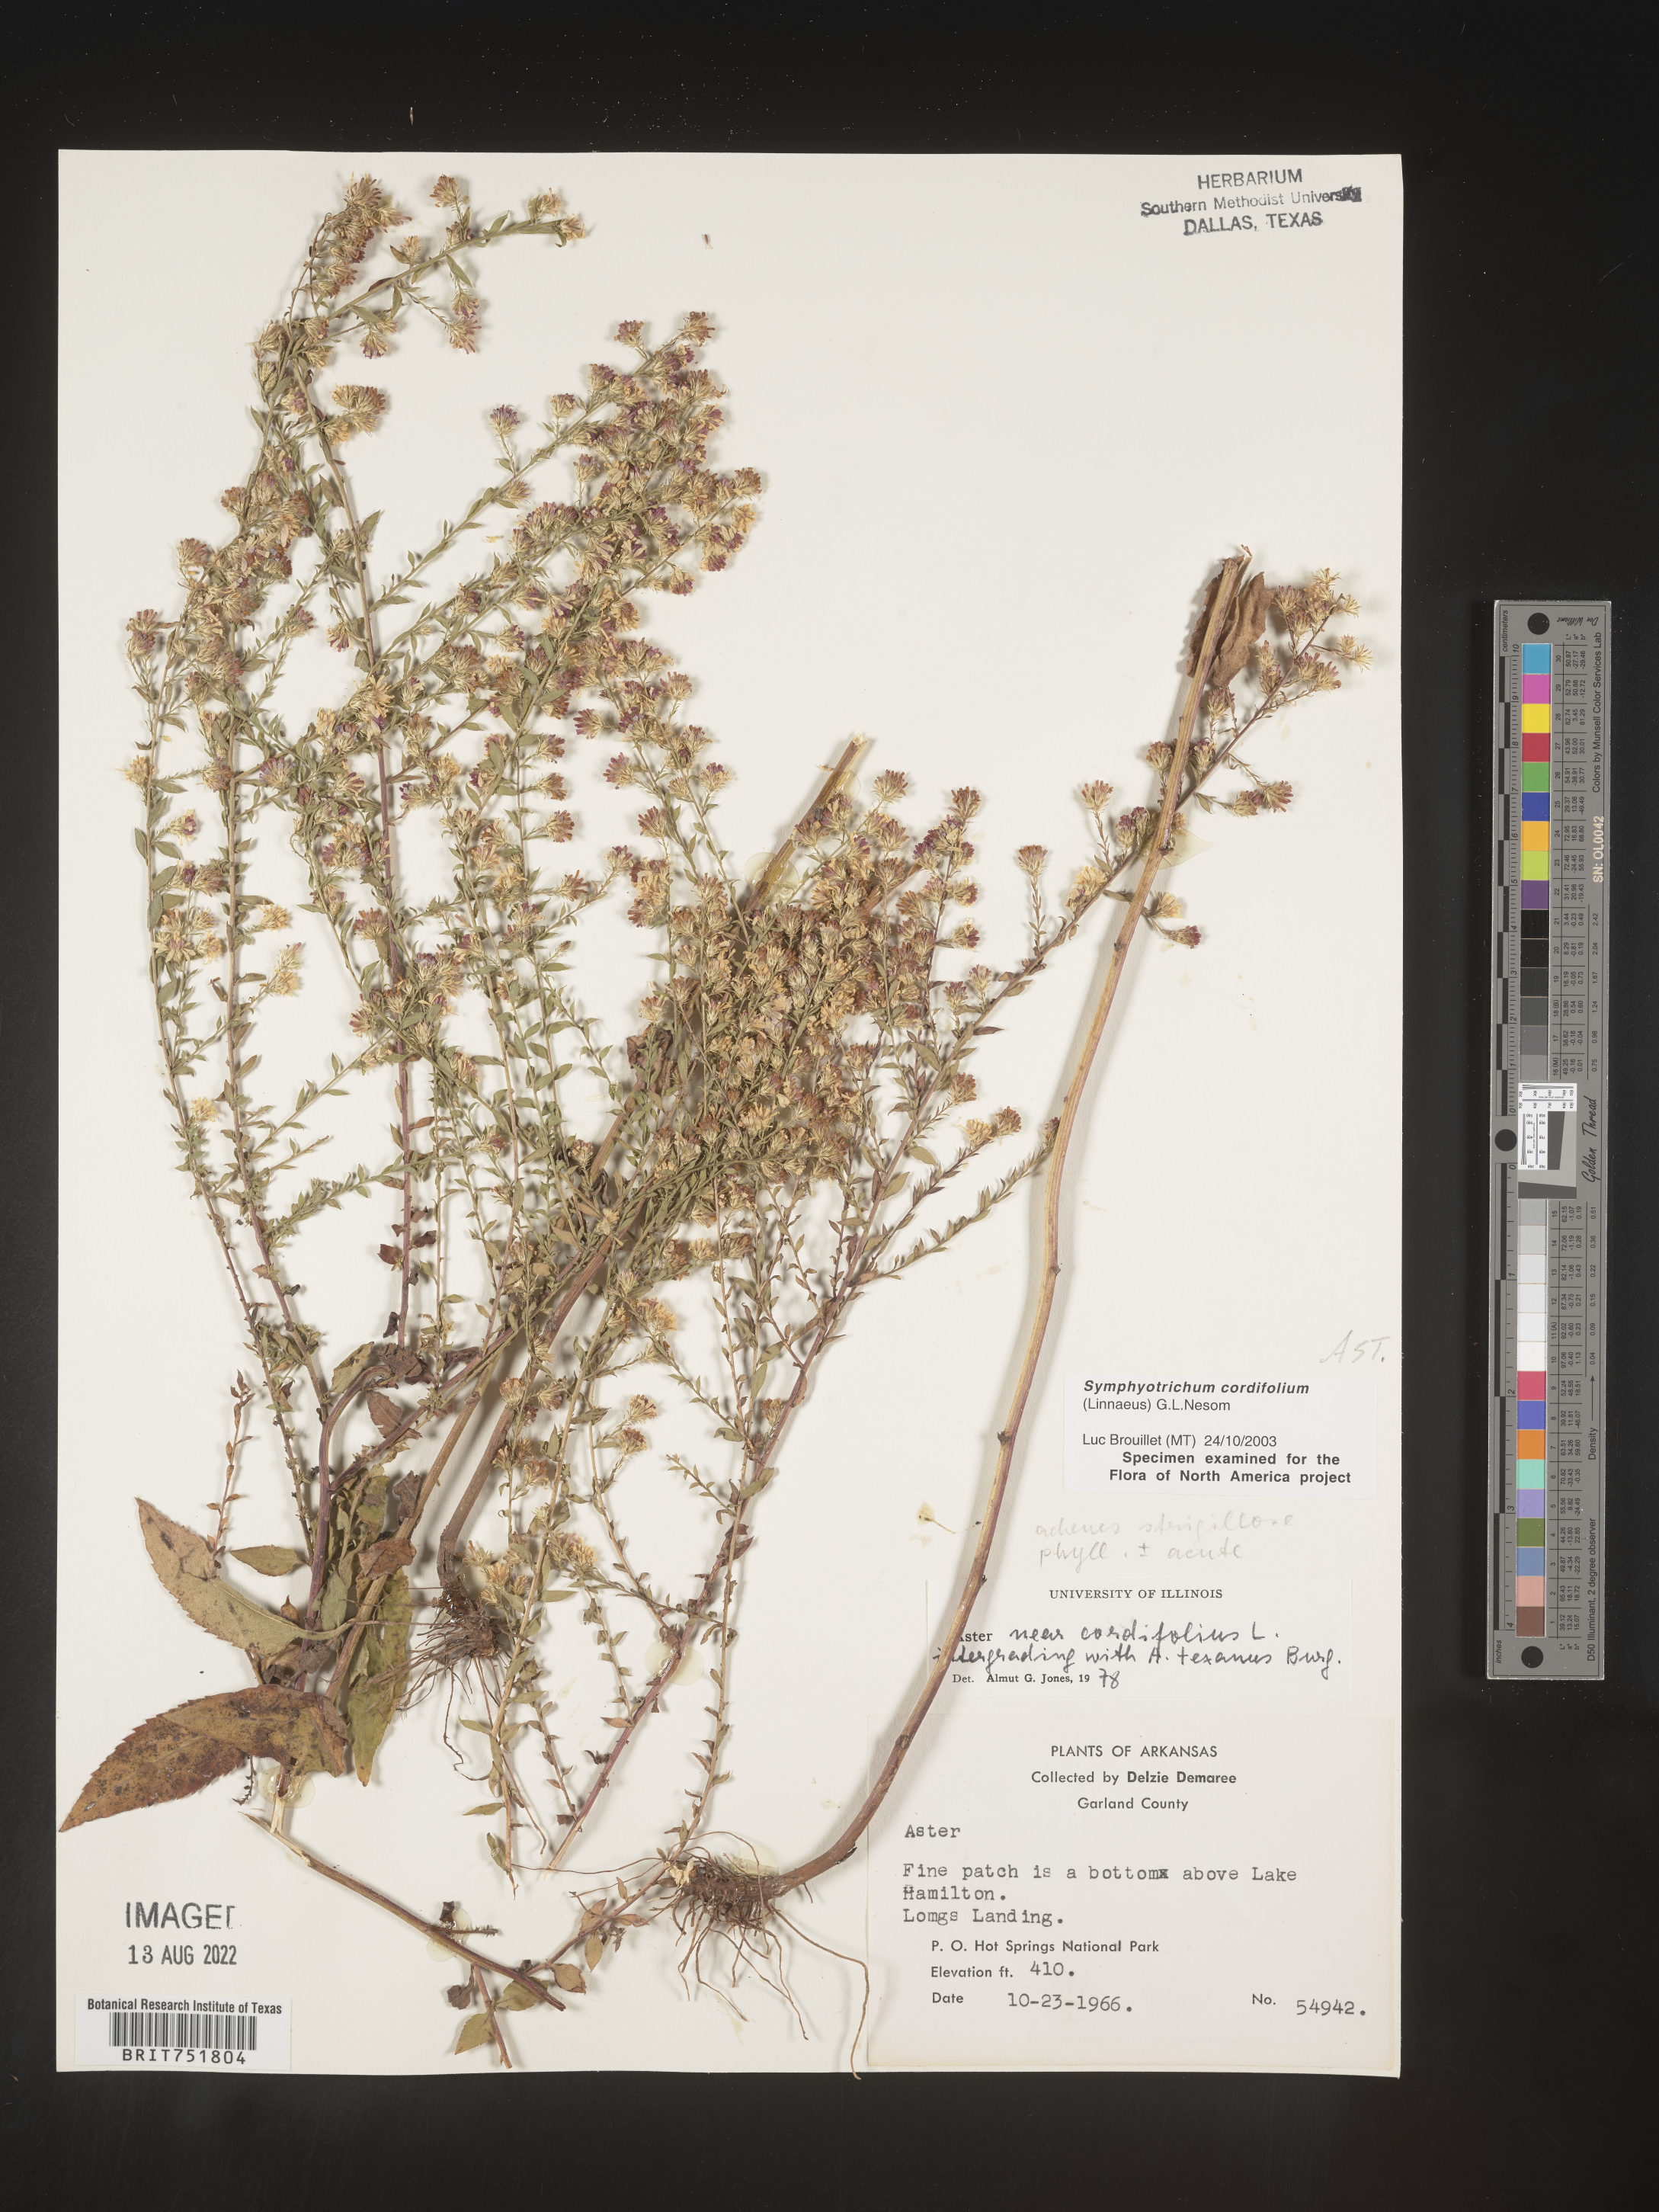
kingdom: Plantae
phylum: Tracheophyta
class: Magnoliopsida
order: Asterales
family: Asteraceae
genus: Symphyotrichum
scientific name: Symphyotrichum drummondii
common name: Drummond's aster
